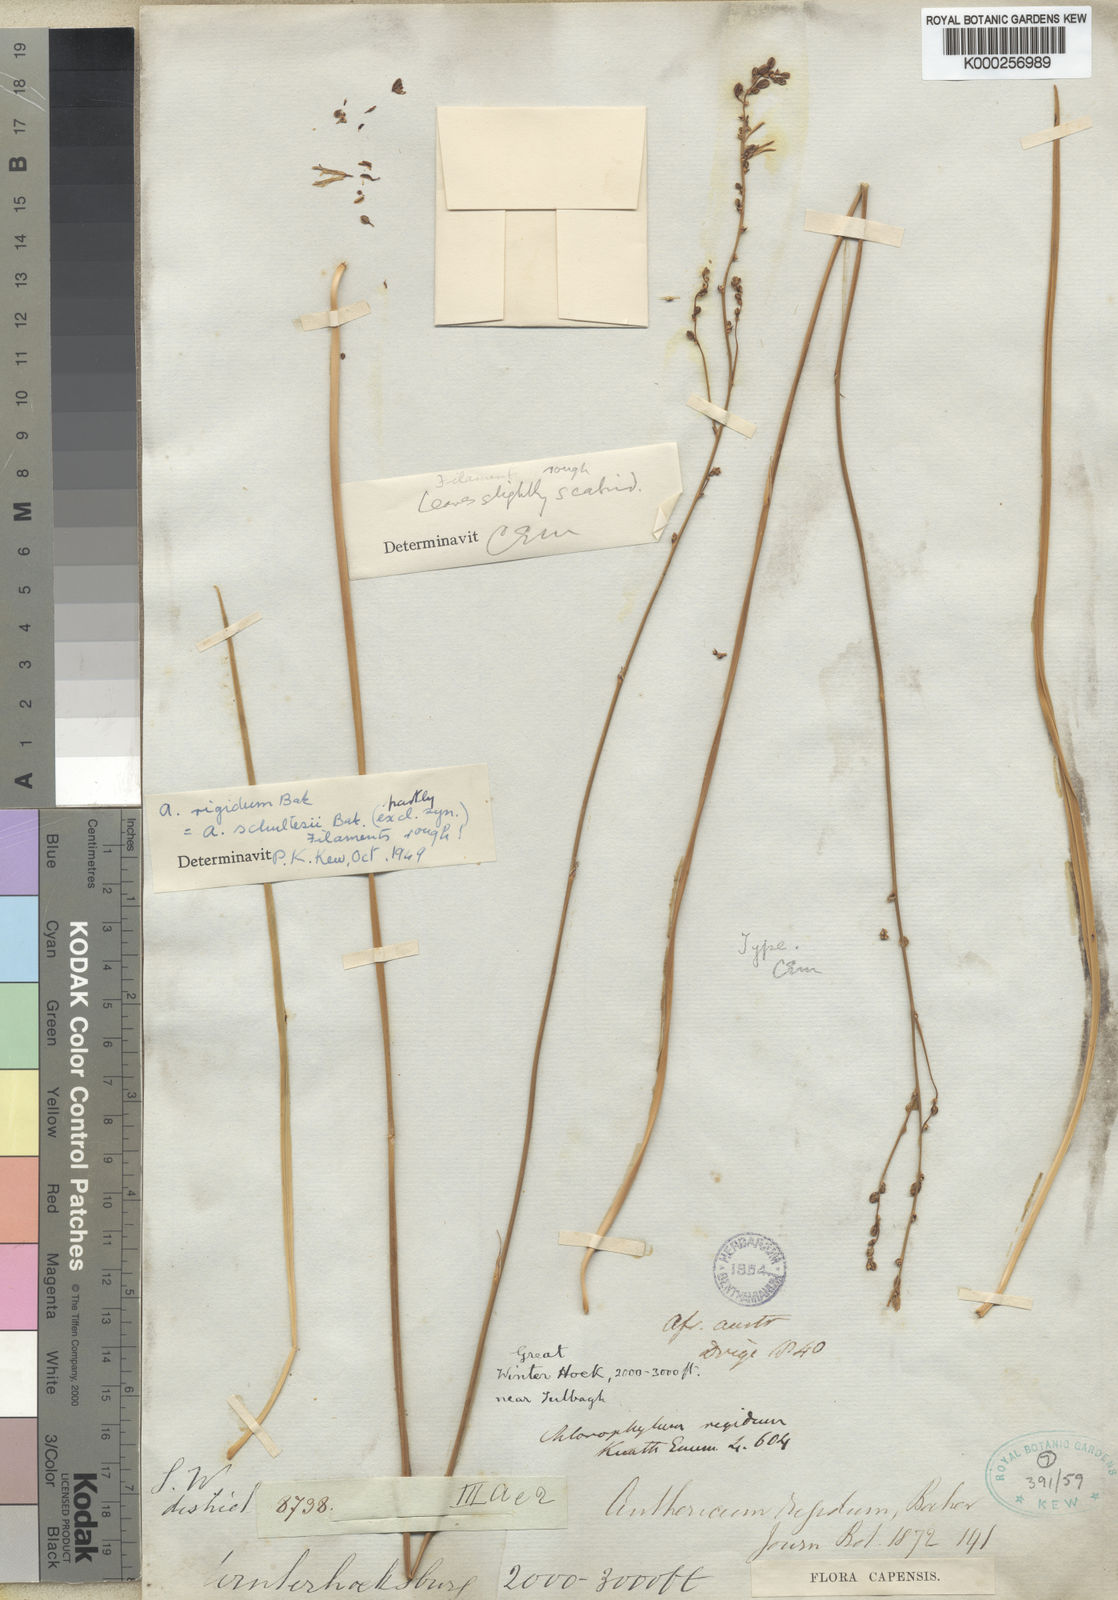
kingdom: Plantae
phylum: Tracheophyta
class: Liliopsida
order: Asparagales
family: Asparagaceae
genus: Chlorophytum
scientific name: Chlorophytum rigidum
